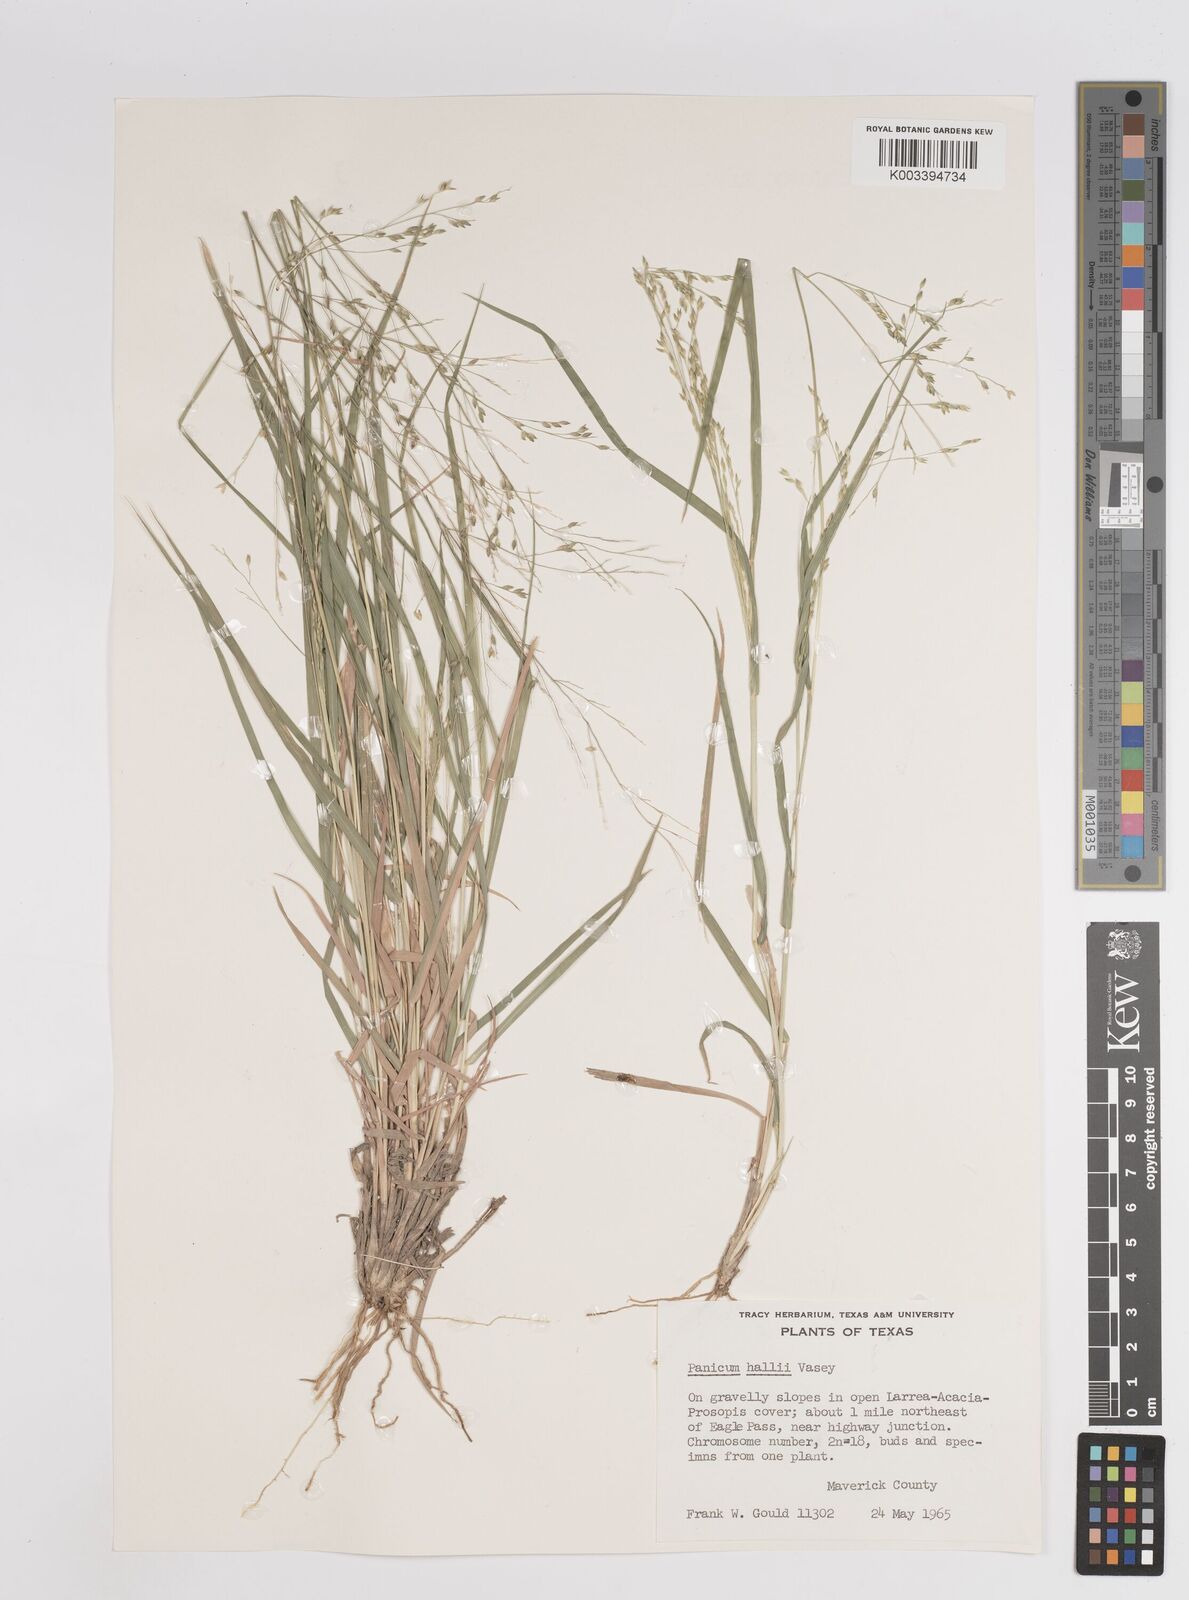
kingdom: Plantae
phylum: Tracheophyta
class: Liliopsida
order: Poales
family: Poaceae
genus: Panicum
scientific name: Panicum hallii
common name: Hall's witchgrass
